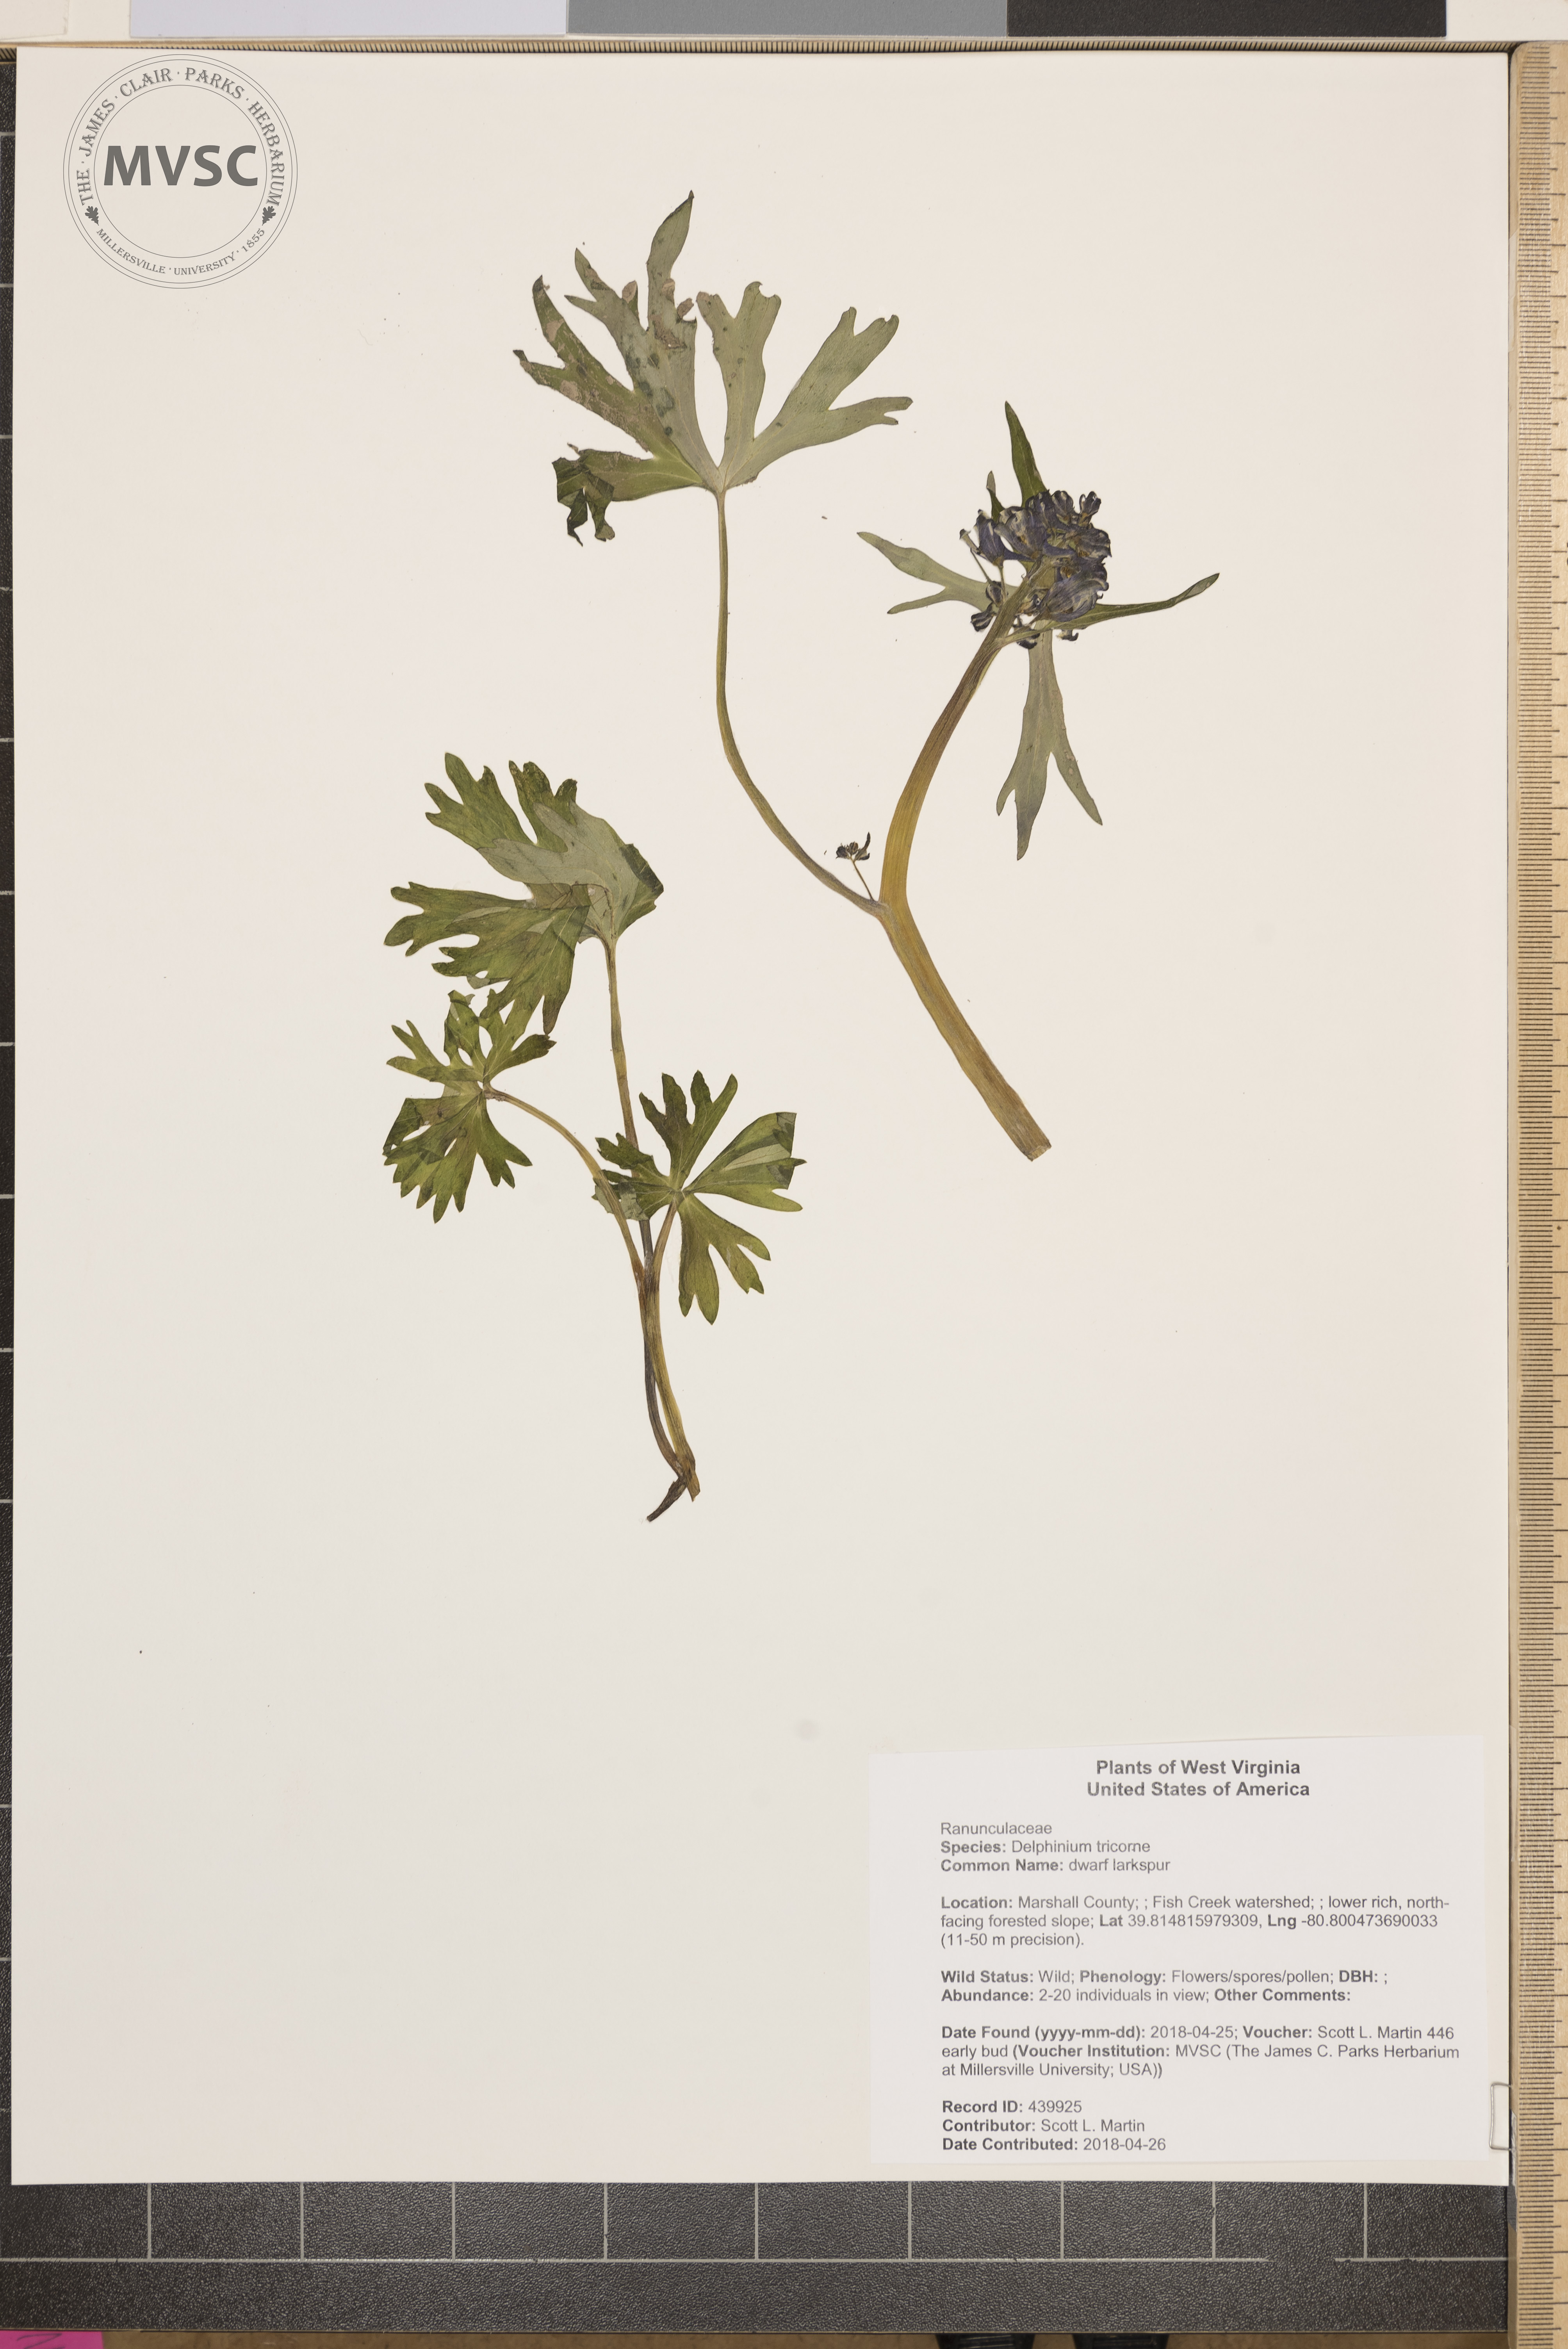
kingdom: Plantae
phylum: Tracheophyta
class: Magnoliopsida
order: Ranunculales
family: Ranunculaceae
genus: Delphinium
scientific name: Delphinium tricorne
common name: dwarf larkspur
